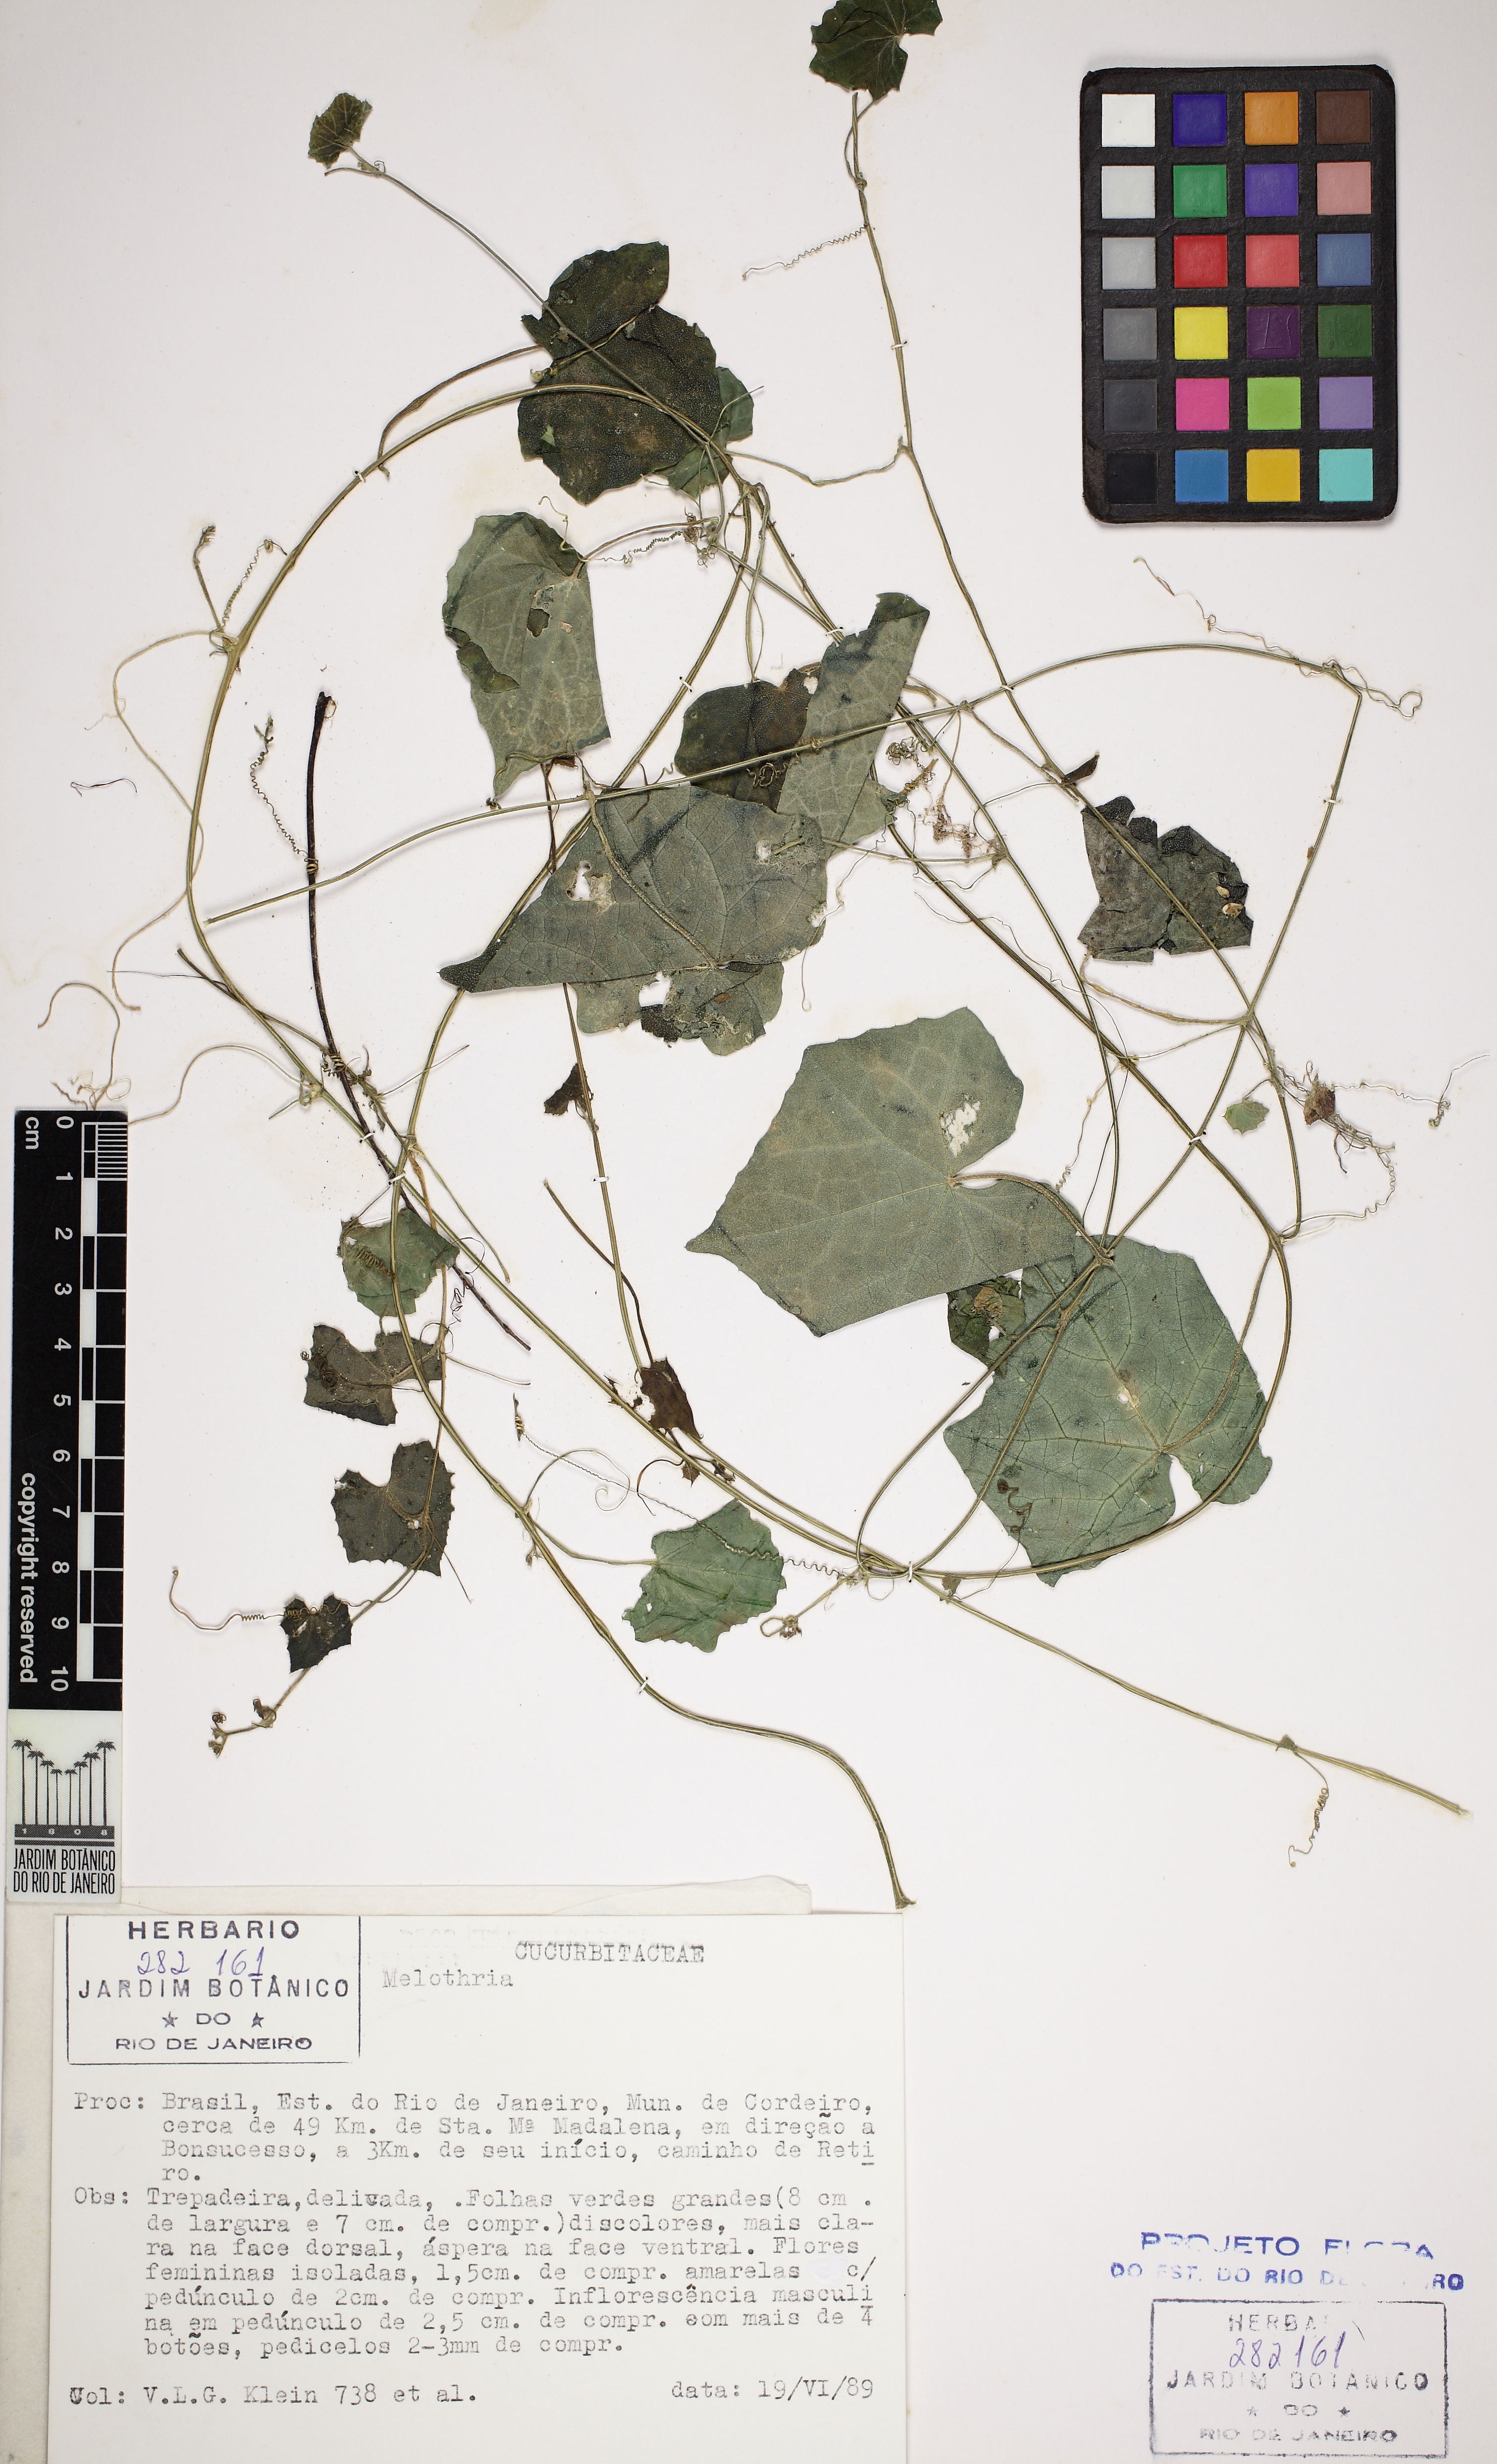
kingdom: Plantae
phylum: Tracheophyta
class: Magnoliopsida
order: Cucurbitales
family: Cucurbitaceae
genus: Melothria
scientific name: Melothria pendula
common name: Creeping-cucumber
